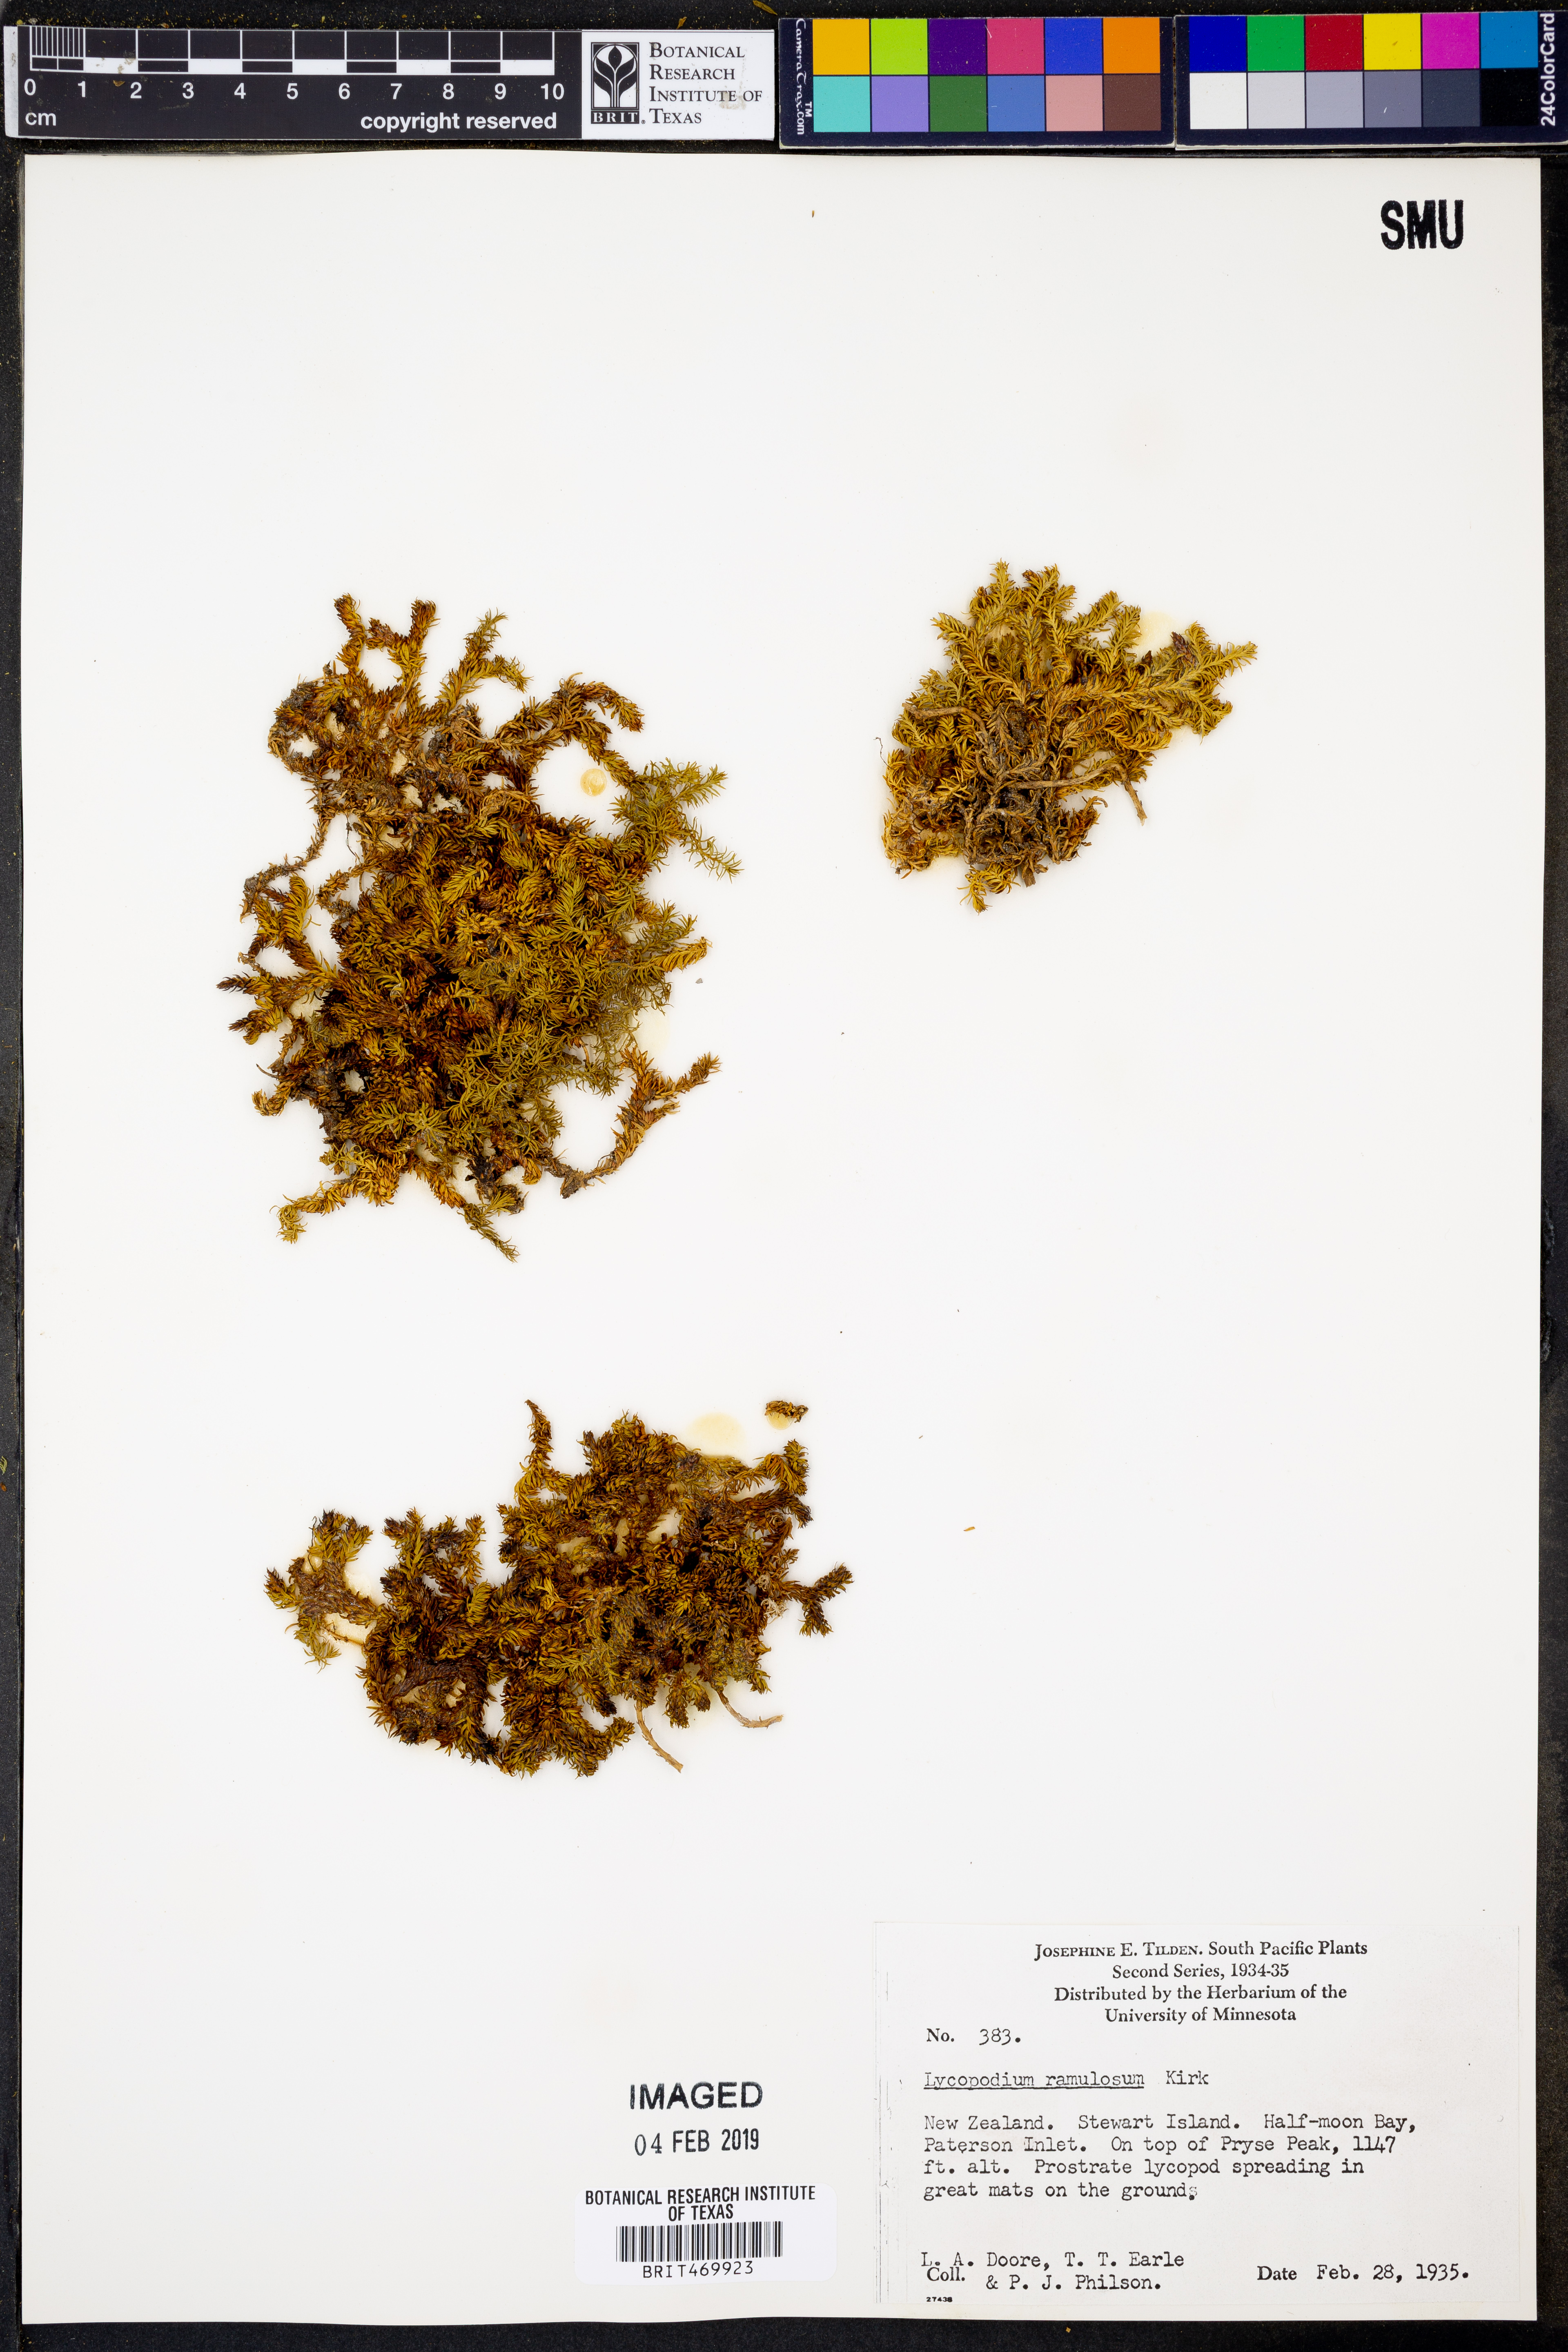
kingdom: Plantae
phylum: Tracheophyta
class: Lycopodiopsida
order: Lycopodiales
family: Lycopodiaceae
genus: Lateristachys
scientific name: Lateristachys diffusa
